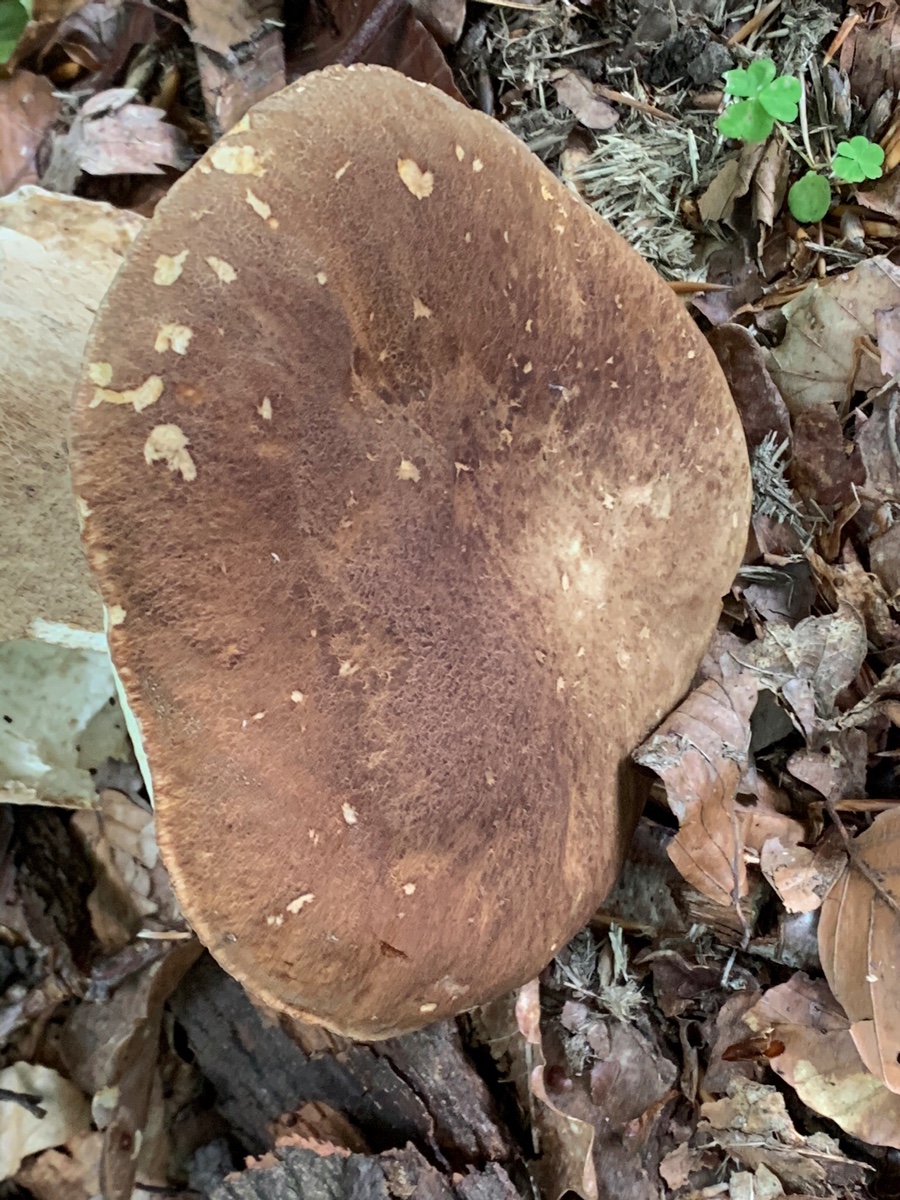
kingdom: Fungi
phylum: Basidiomycota
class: Agaricomycetes
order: Boletales
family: Boletaceae
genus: Boletus
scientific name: Boletus reticulatus
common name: sommer-rørhat
